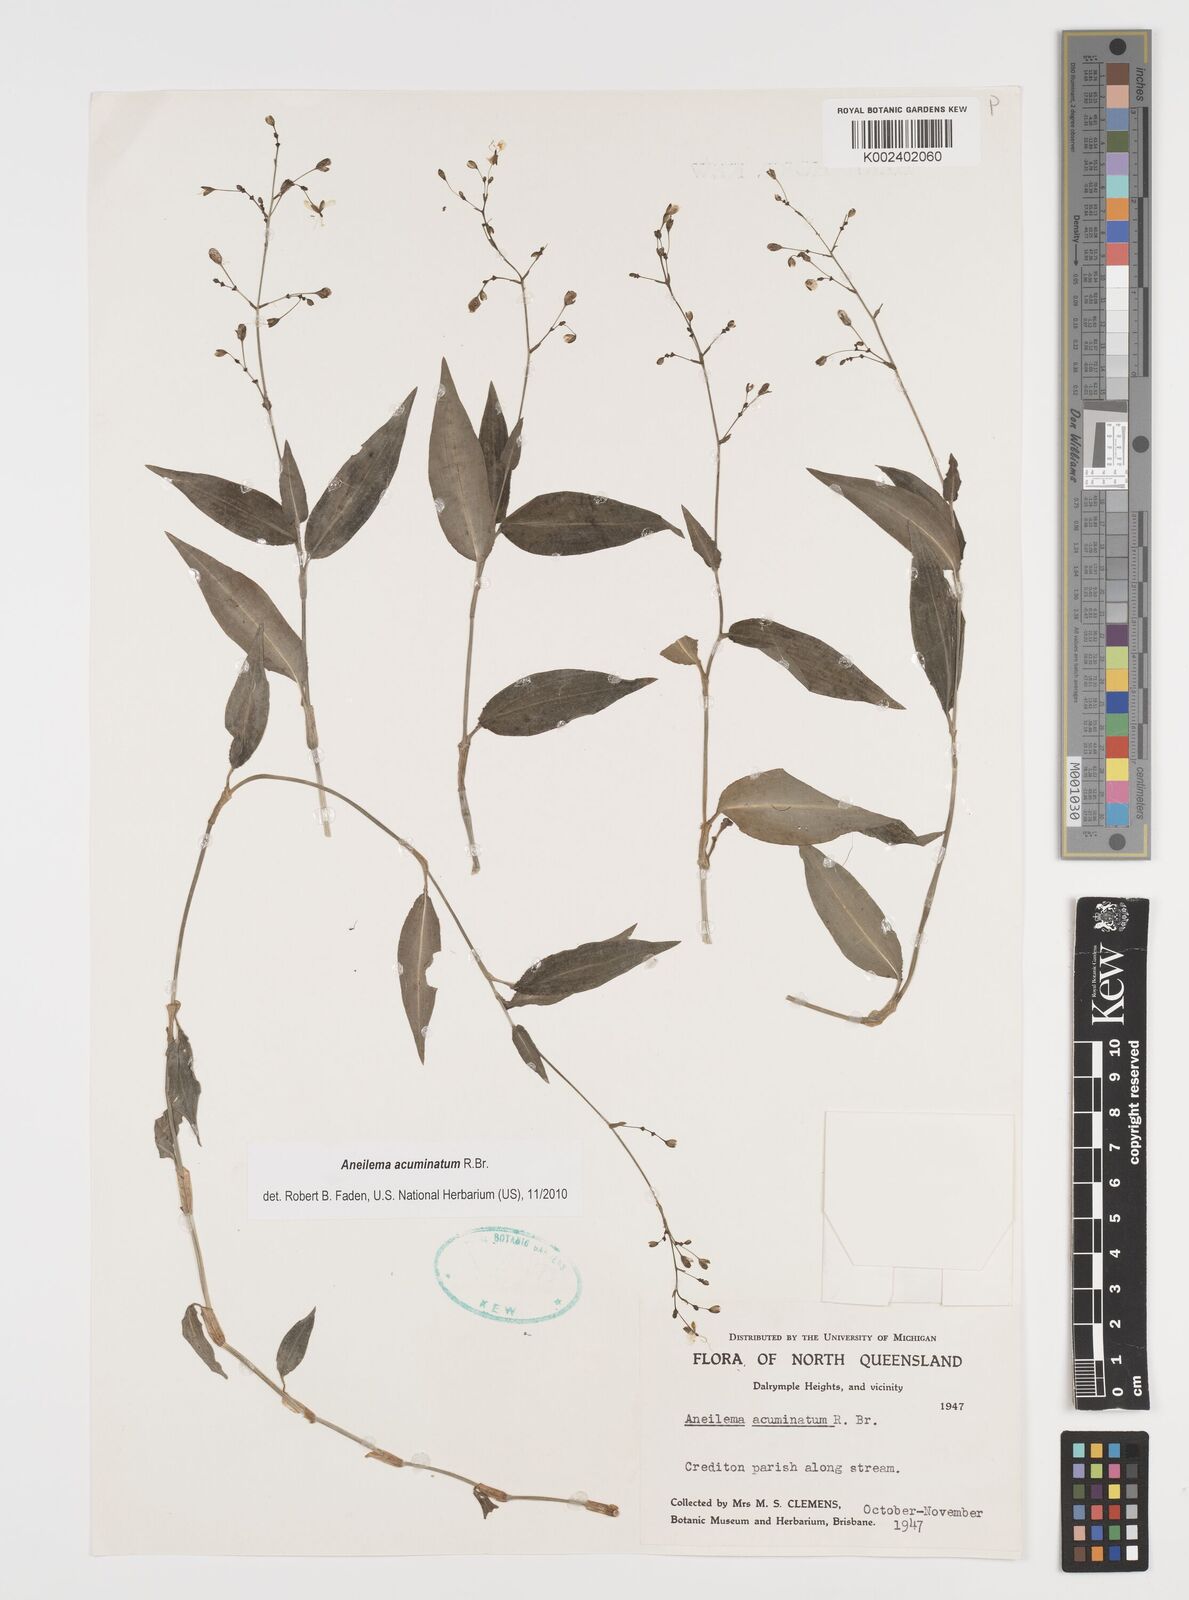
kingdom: Plantae
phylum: Tracheophyta
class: Liliopsida
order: Commelinales
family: Commelinaceae
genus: Aneilema
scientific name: Aneilema acuminatum
